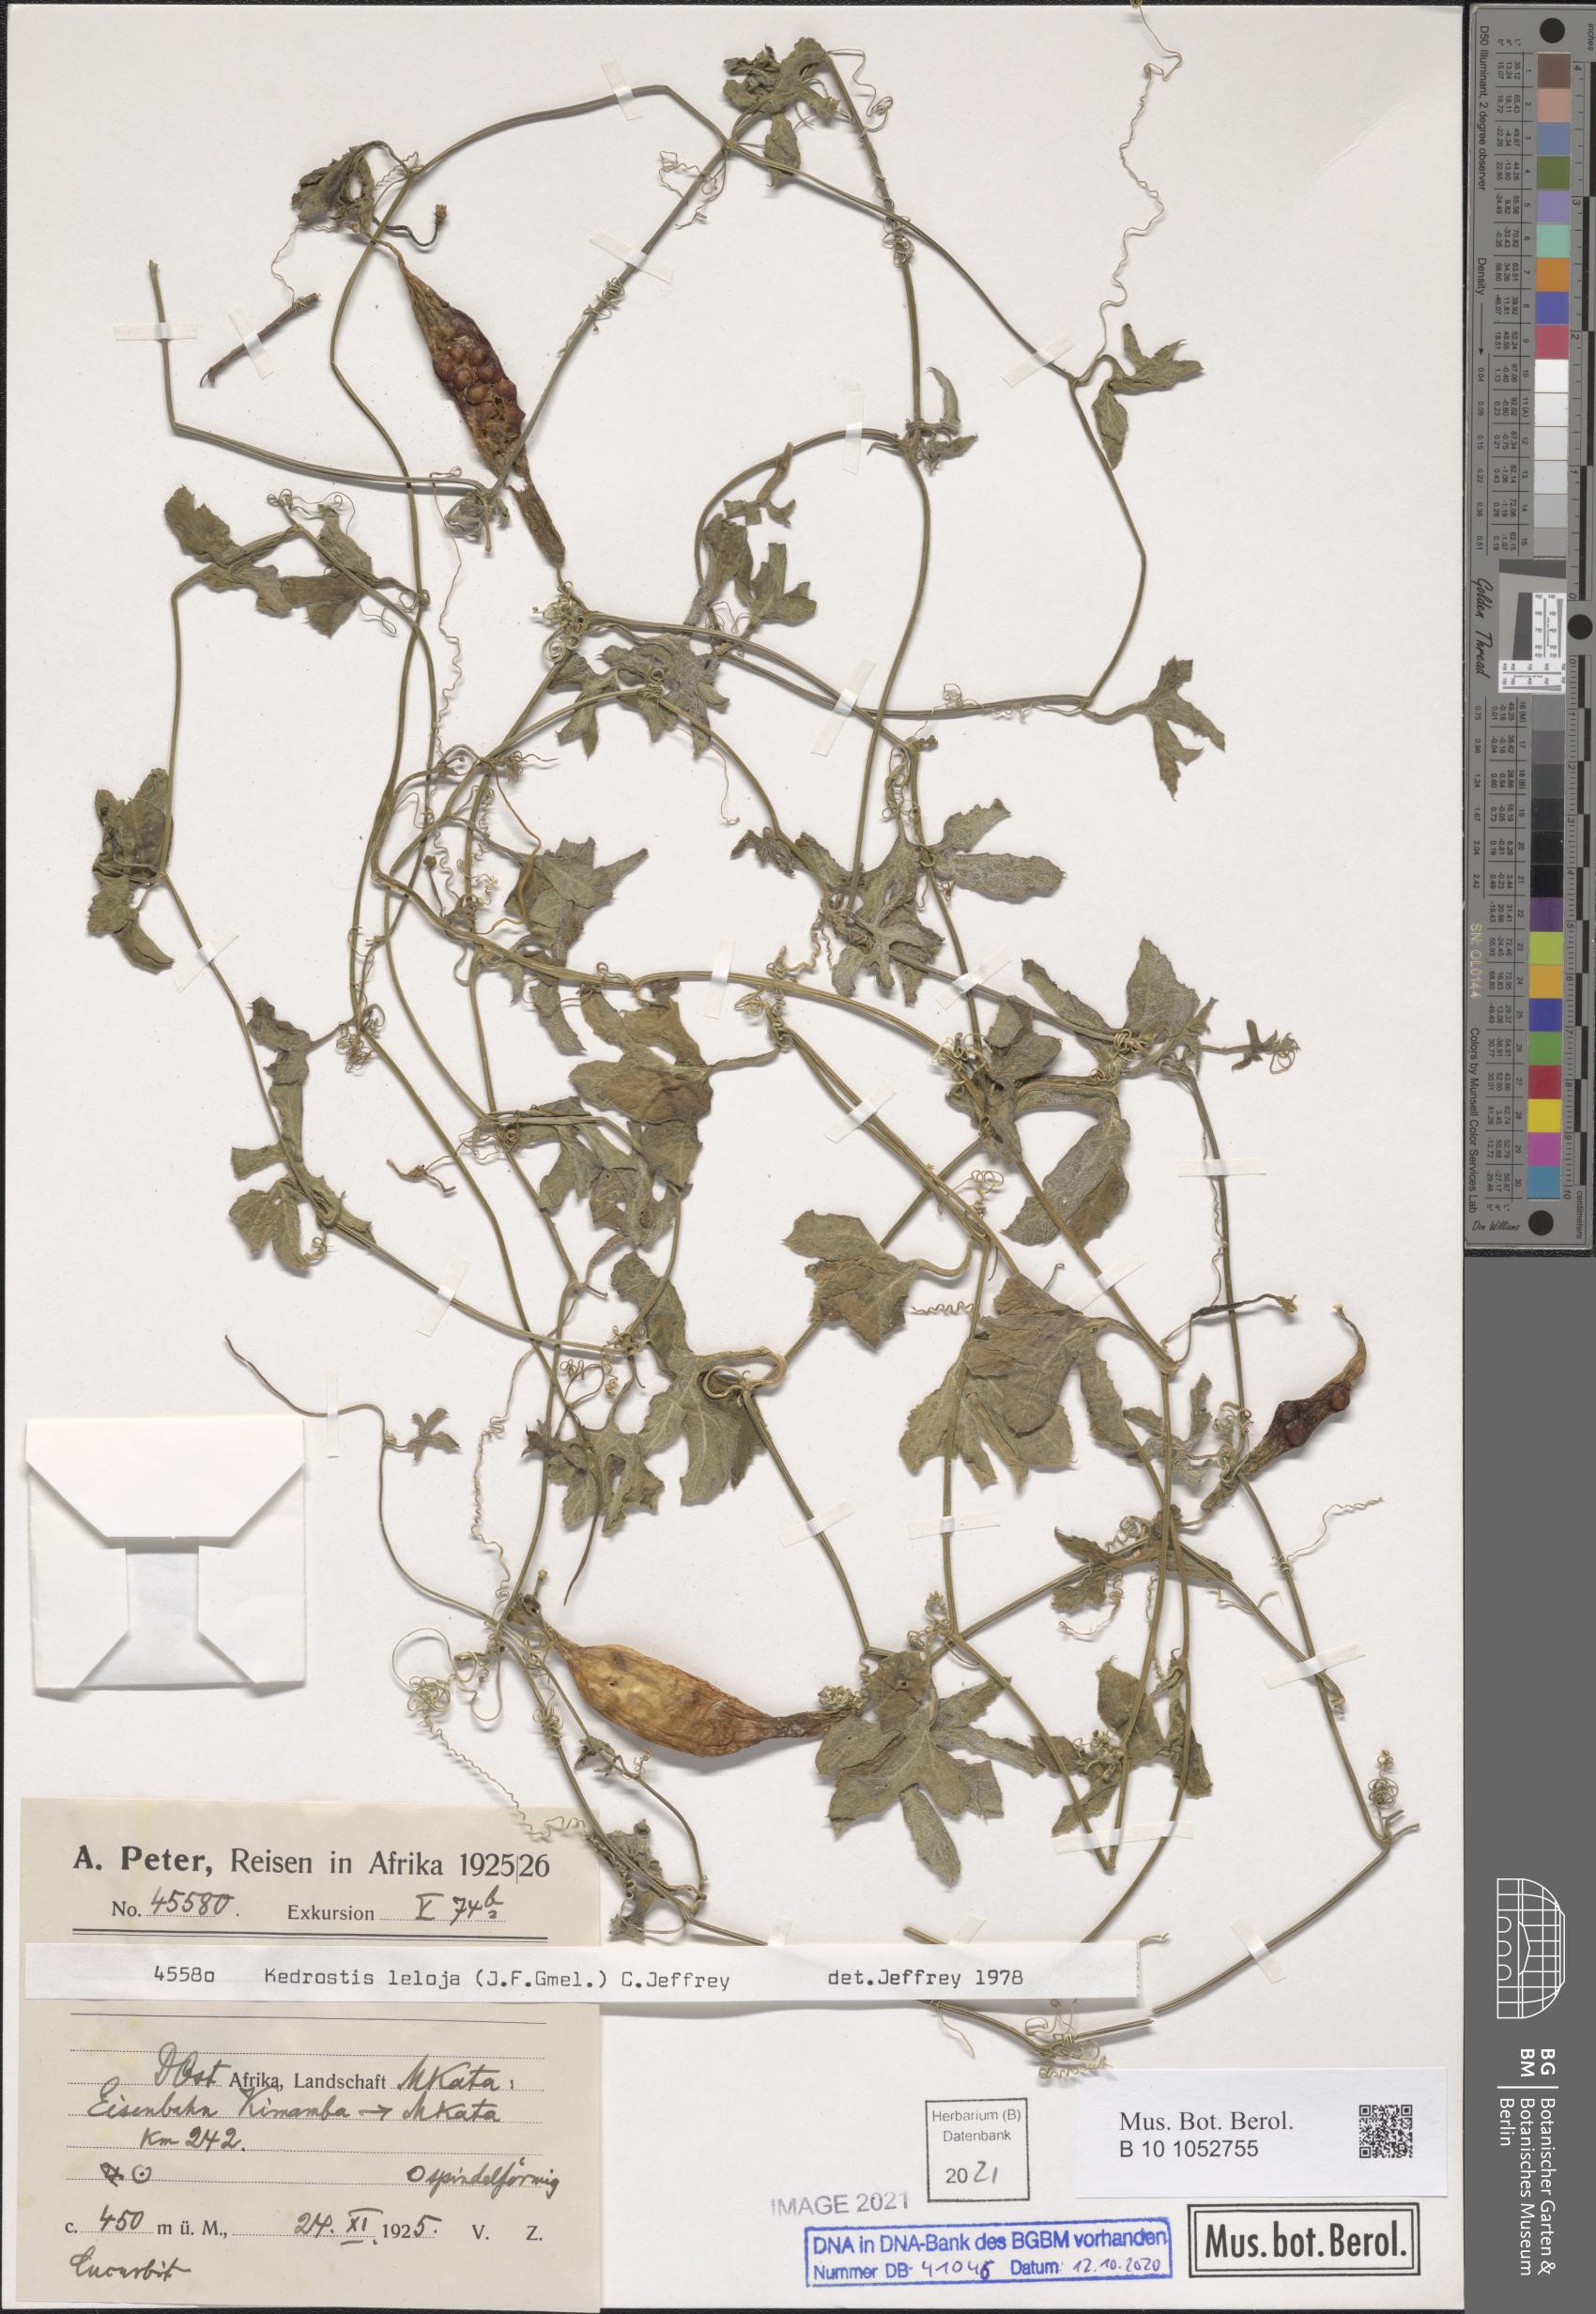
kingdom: Plantae
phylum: Tracheophyta
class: Magnoliopsida
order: Cucurbitales
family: Cucurbitaceae
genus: Kedrostis
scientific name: Kedrostis leloja
